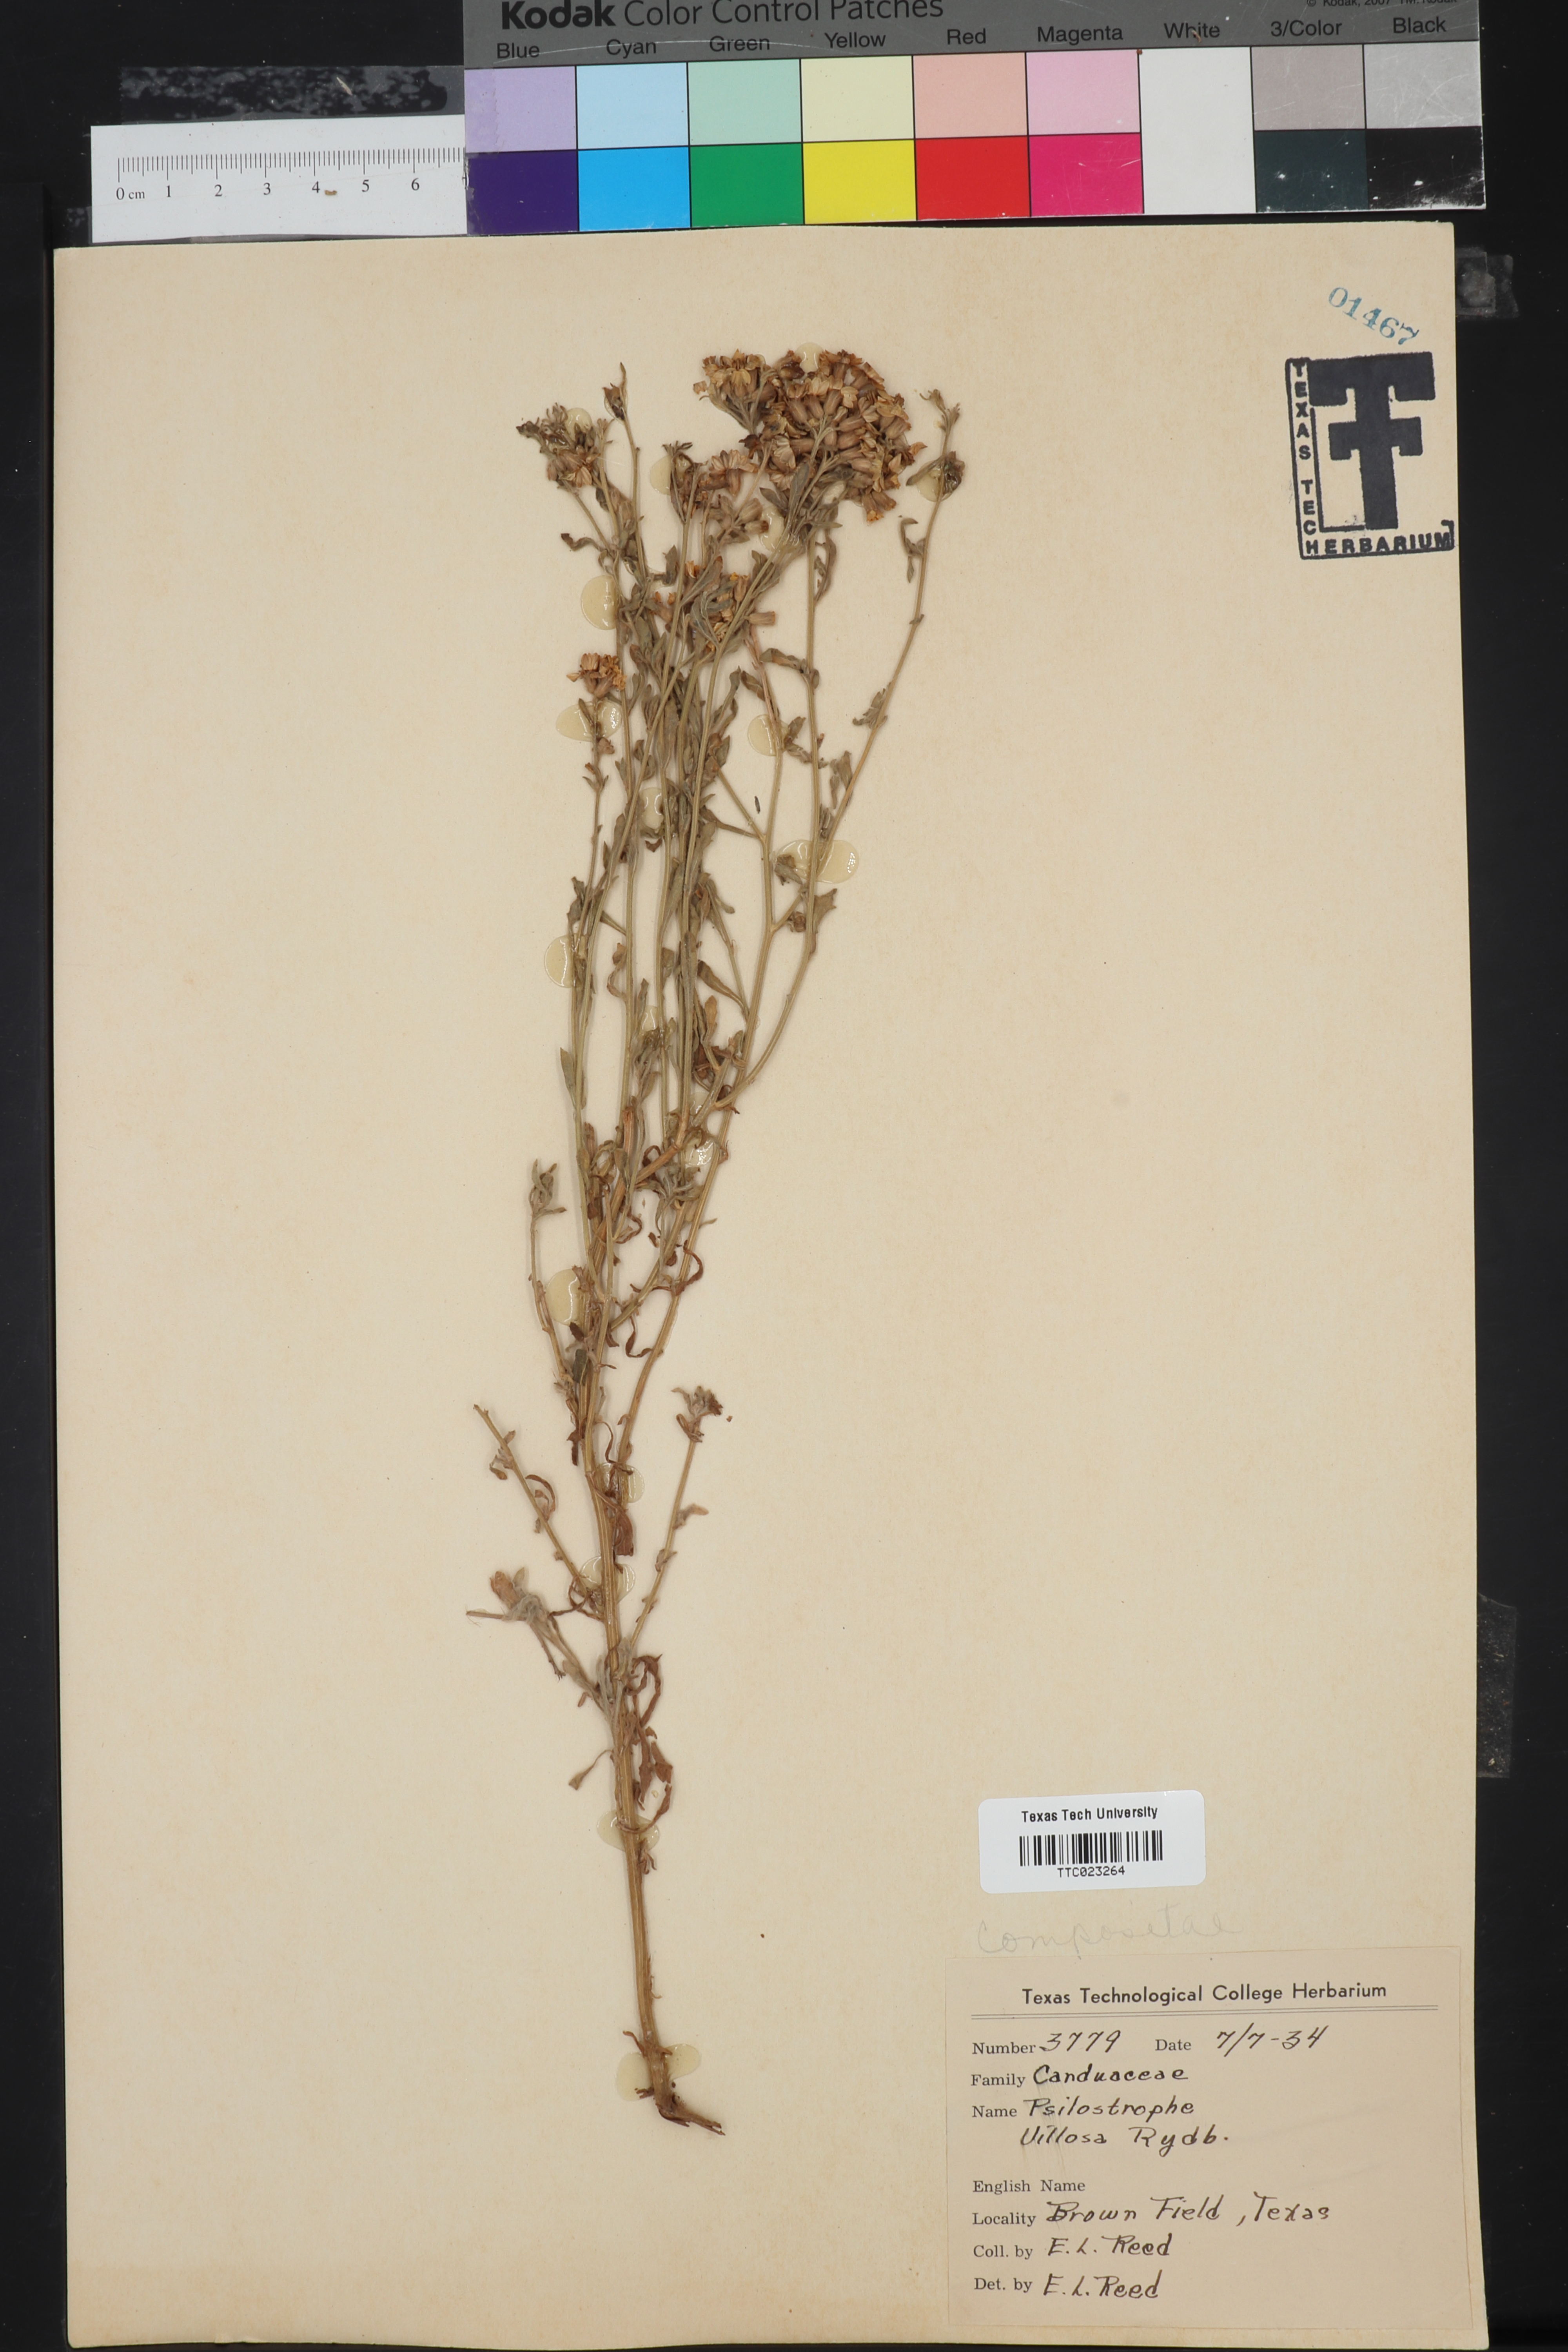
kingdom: Plantae
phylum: Tracheophyta
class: Magnoliopsida
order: Asterales
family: Asteraceae
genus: Psilostrophe
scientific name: Psilostrophe villosa
